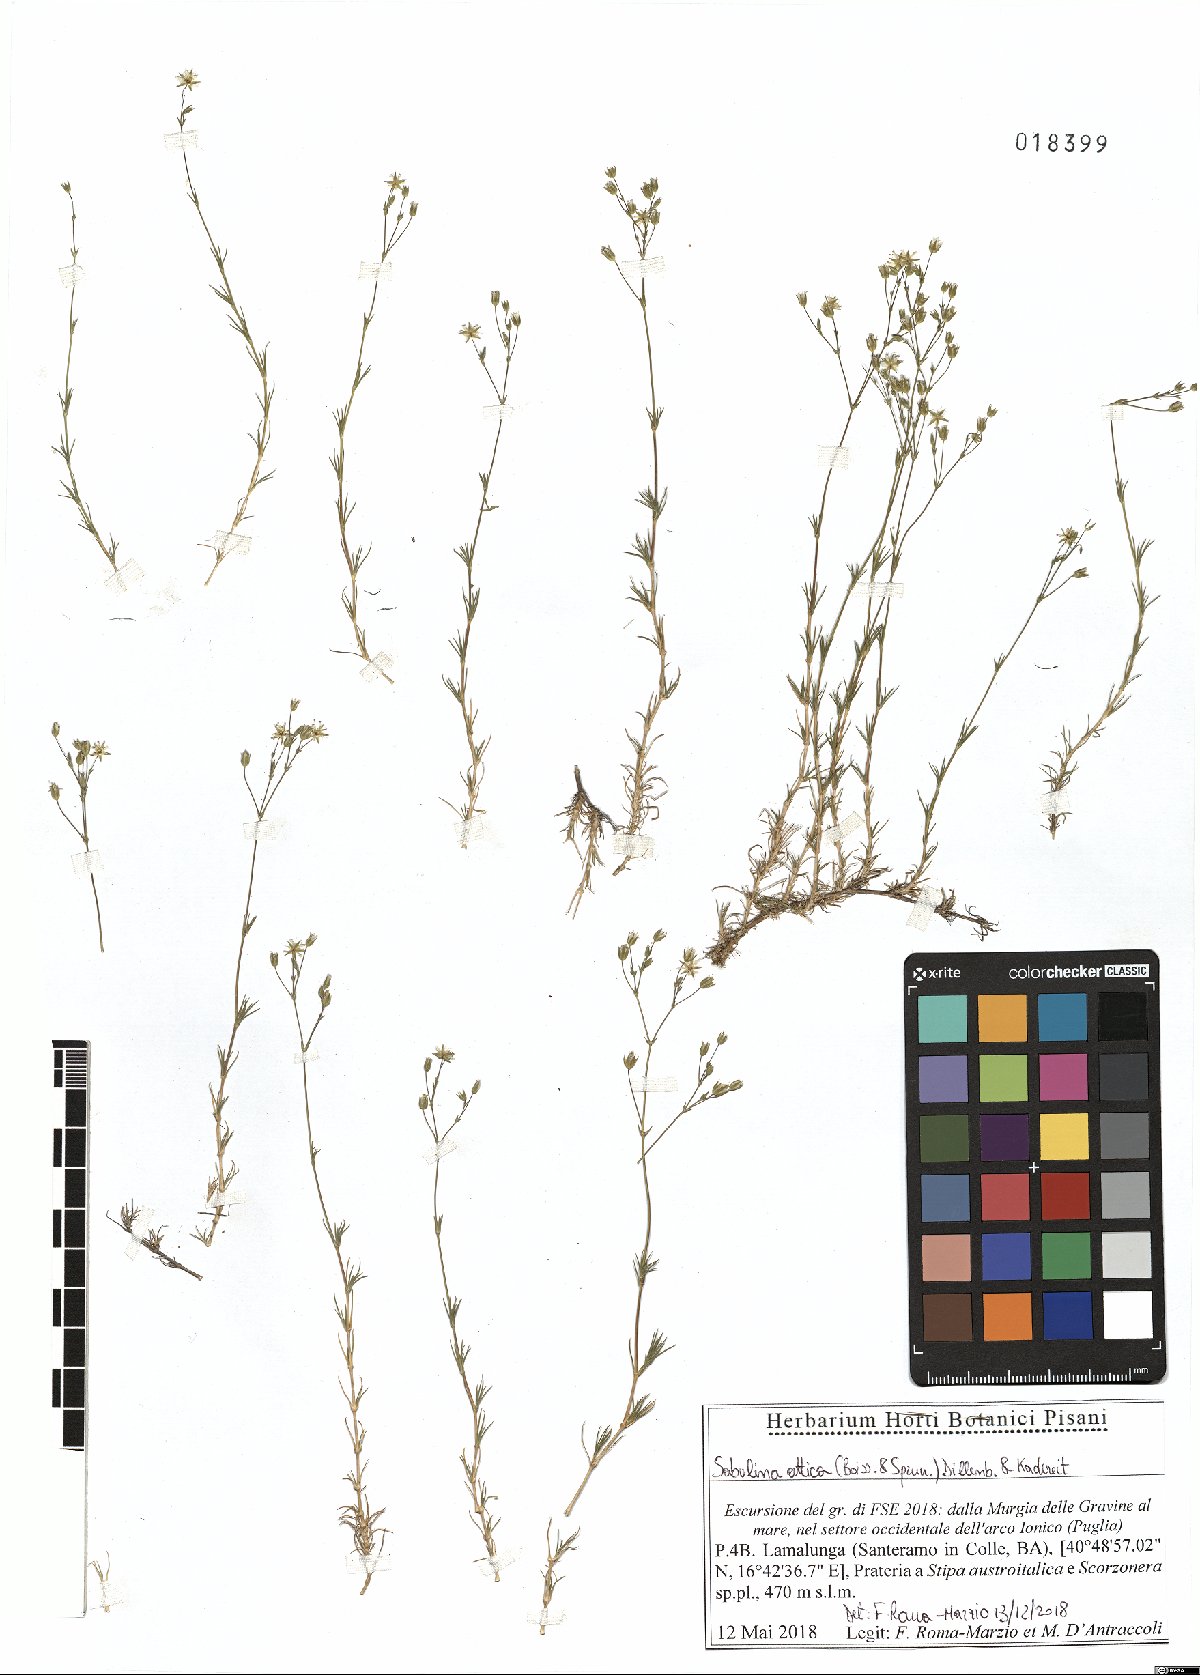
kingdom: Plantae
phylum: Tracheophyta
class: Magnoliopsida
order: Caryophyllales
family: Caryophyllaceae
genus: Sabulina
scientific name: Sabulina attica
